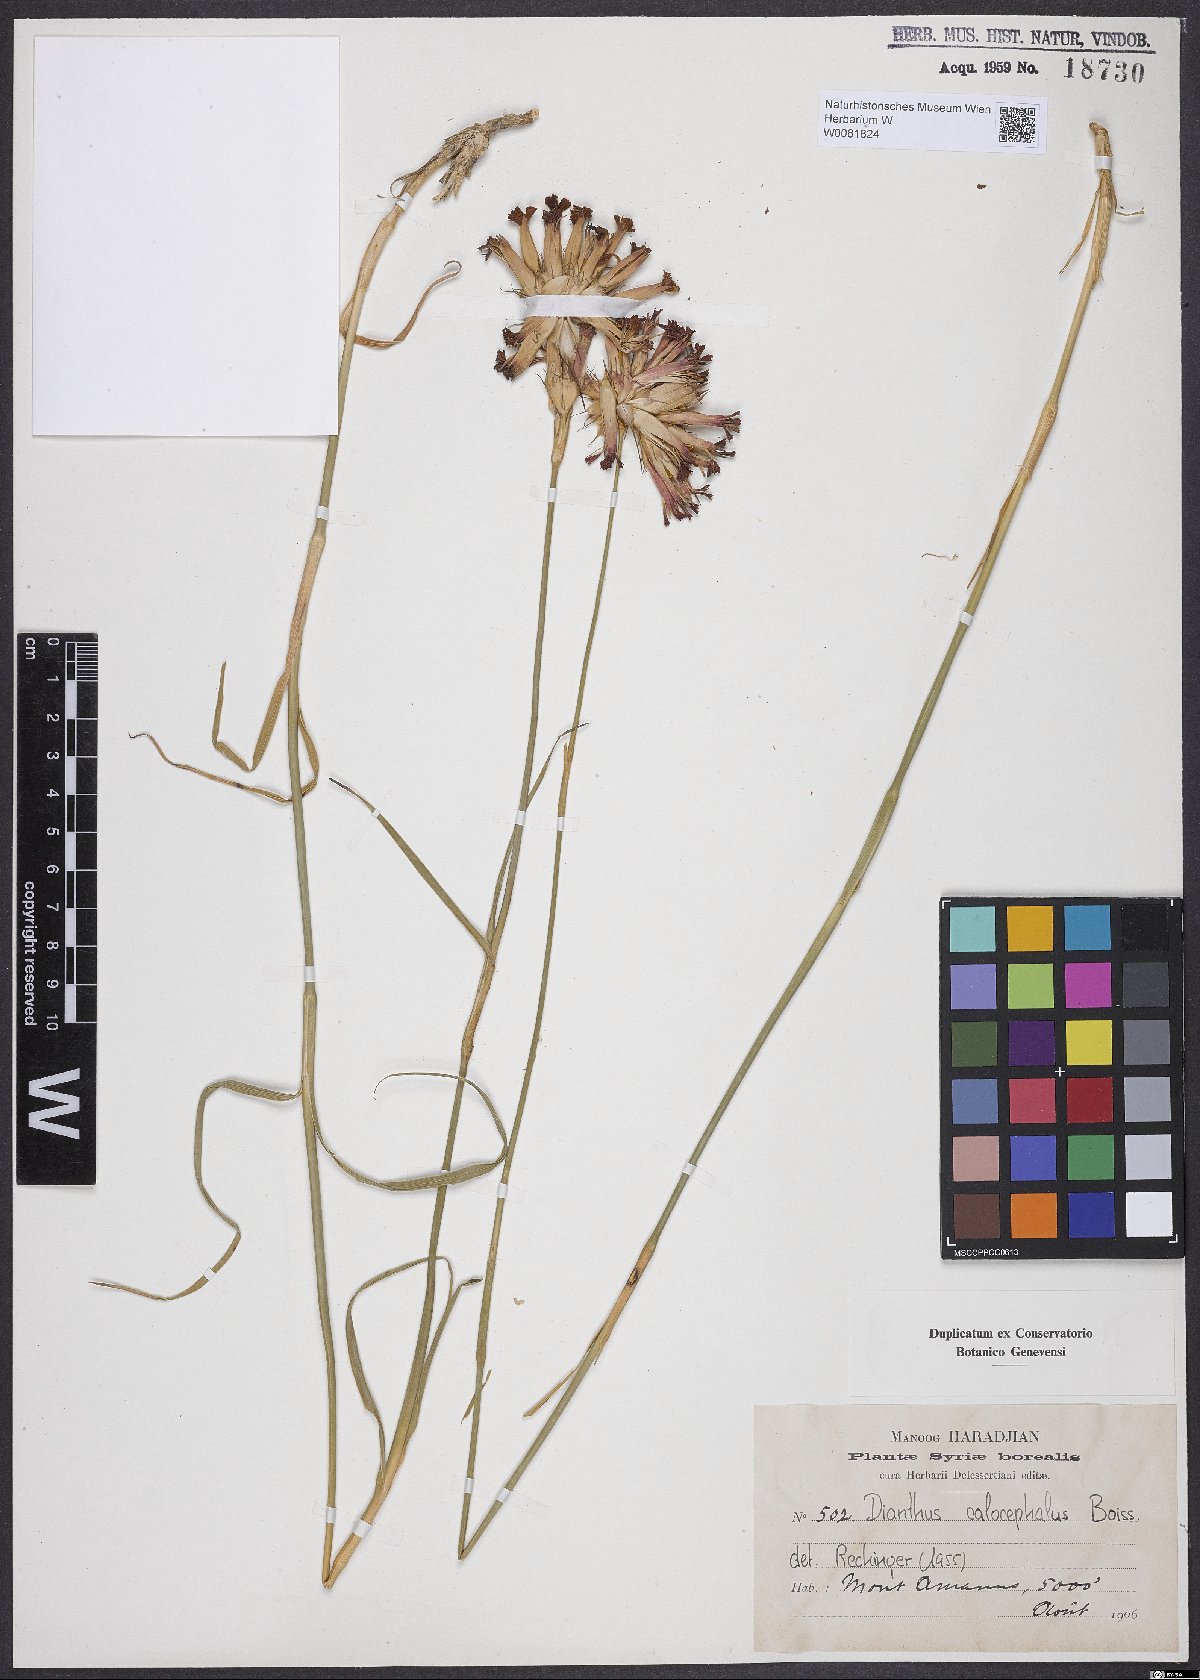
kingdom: Plantae
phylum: Tracheophyta
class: Magnoliopsida
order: Caryophyllales
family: Caryophyllaceae
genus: Dianthus
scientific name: Dianthus cruentus
